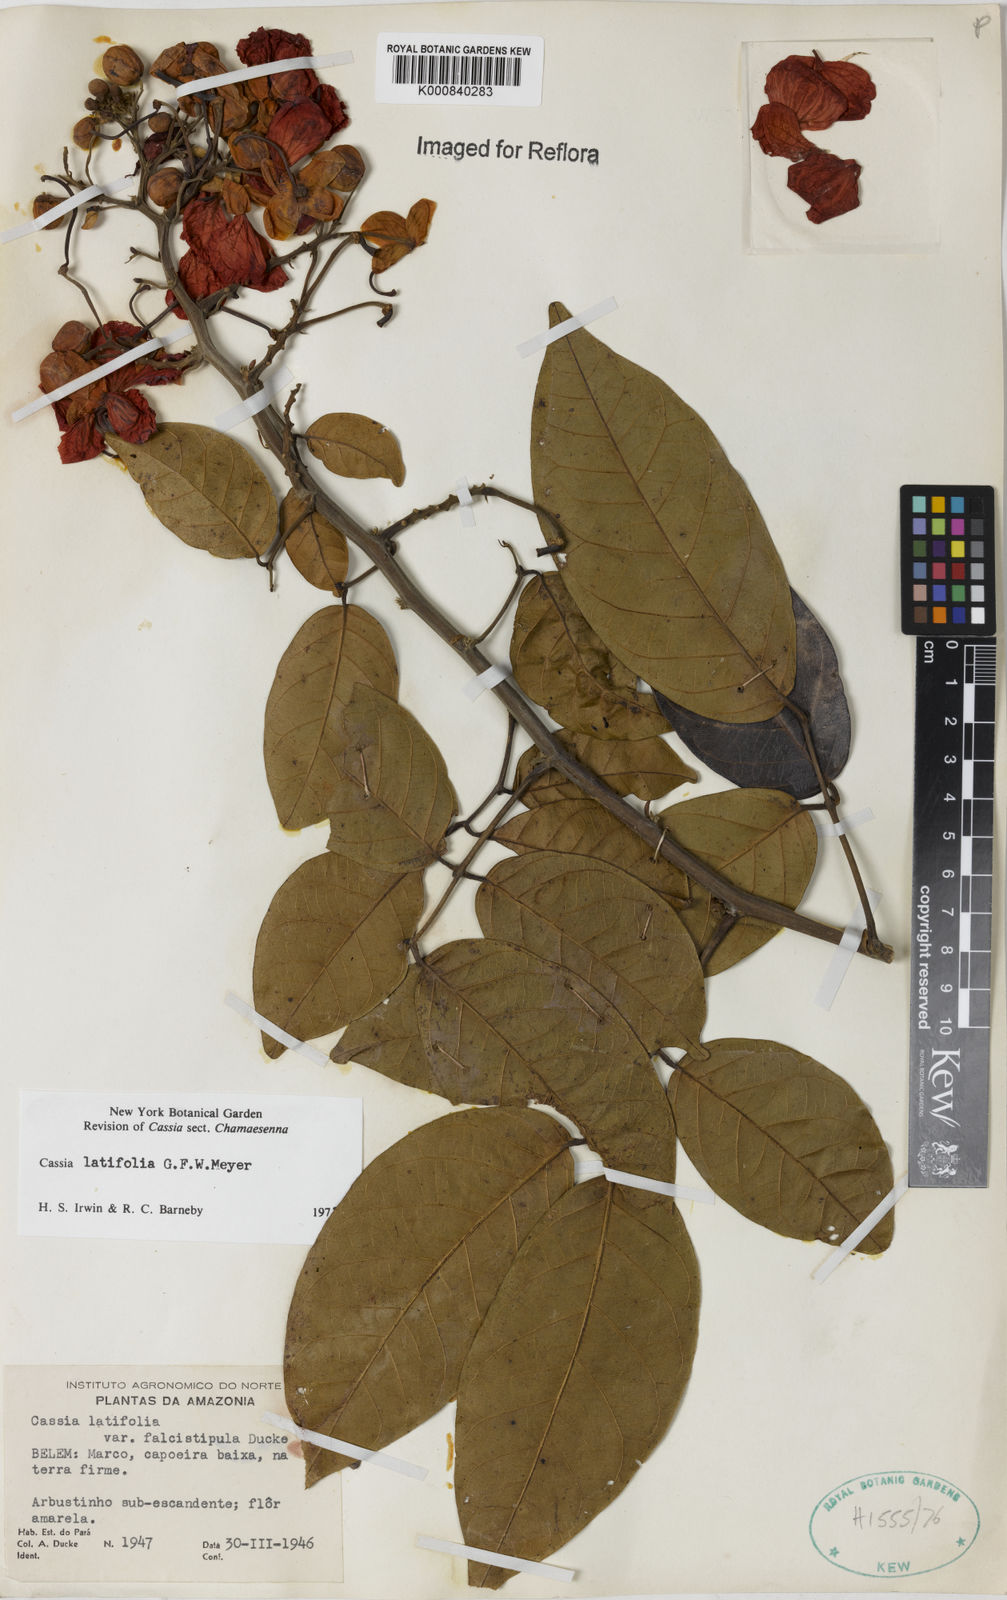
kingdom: Plantae
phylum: Tracheophyta
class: Magnoliopsida
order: Fabales
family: Fabaceae
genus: Senna
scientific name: Senna latifolia
